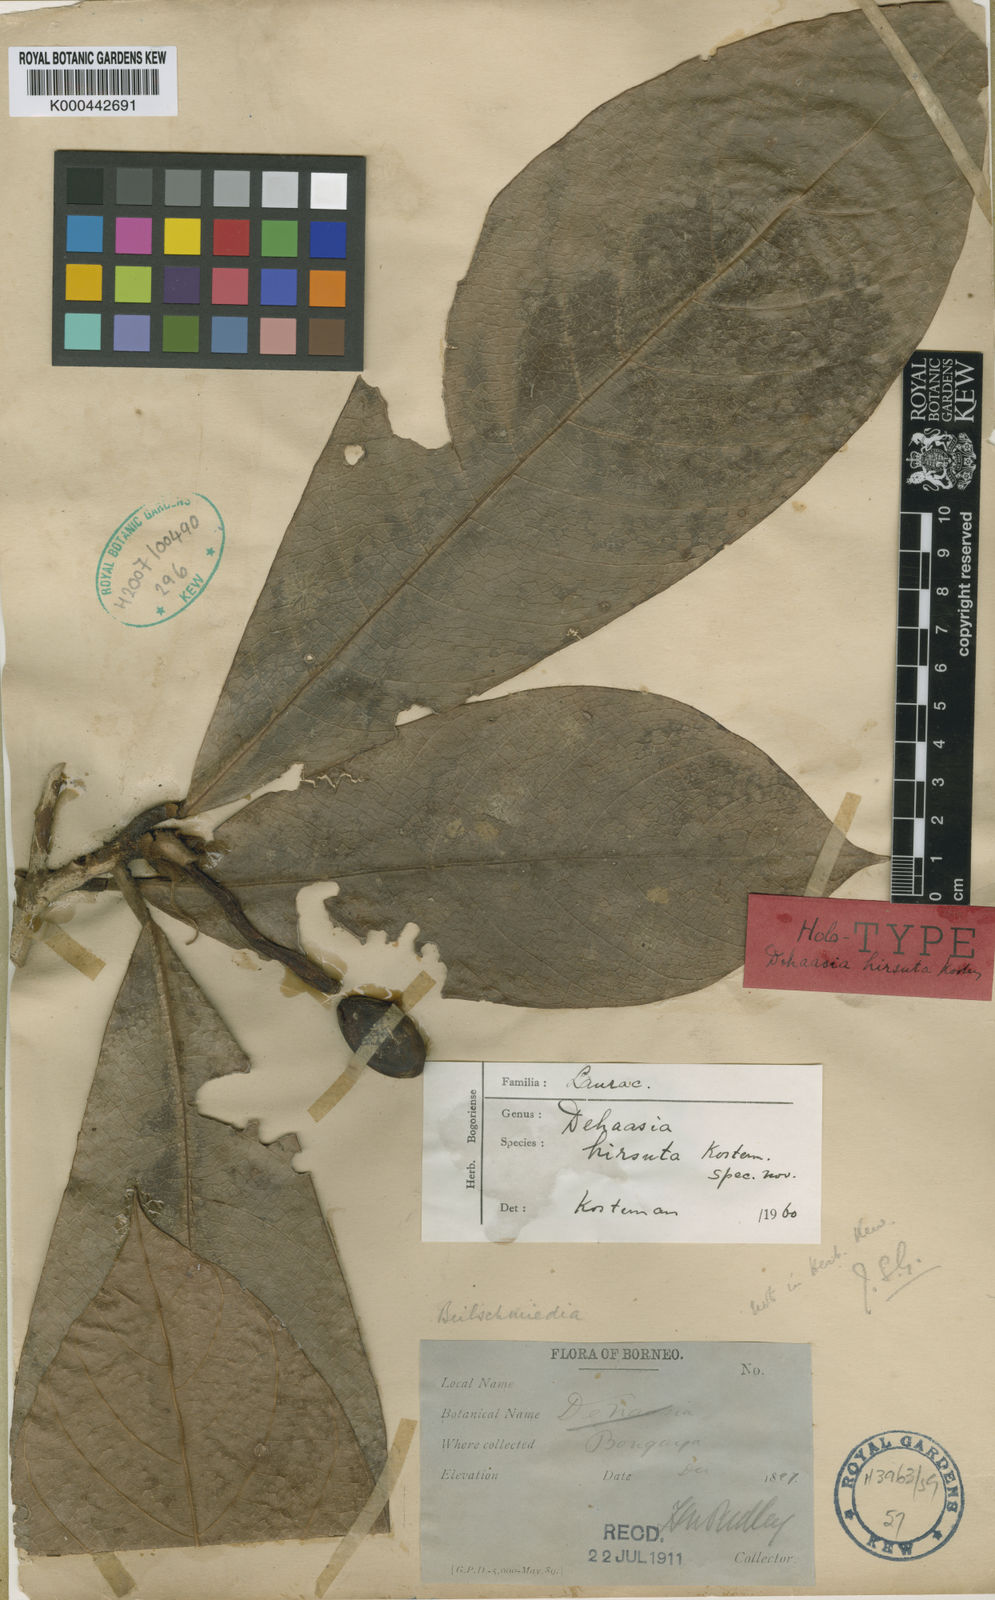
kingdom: Plantae
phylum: Tracheophyta
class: Magnoliopsida
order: Laurales
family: Lauraceae
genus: Dehaasia
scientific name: Dehaasia hirsuta
